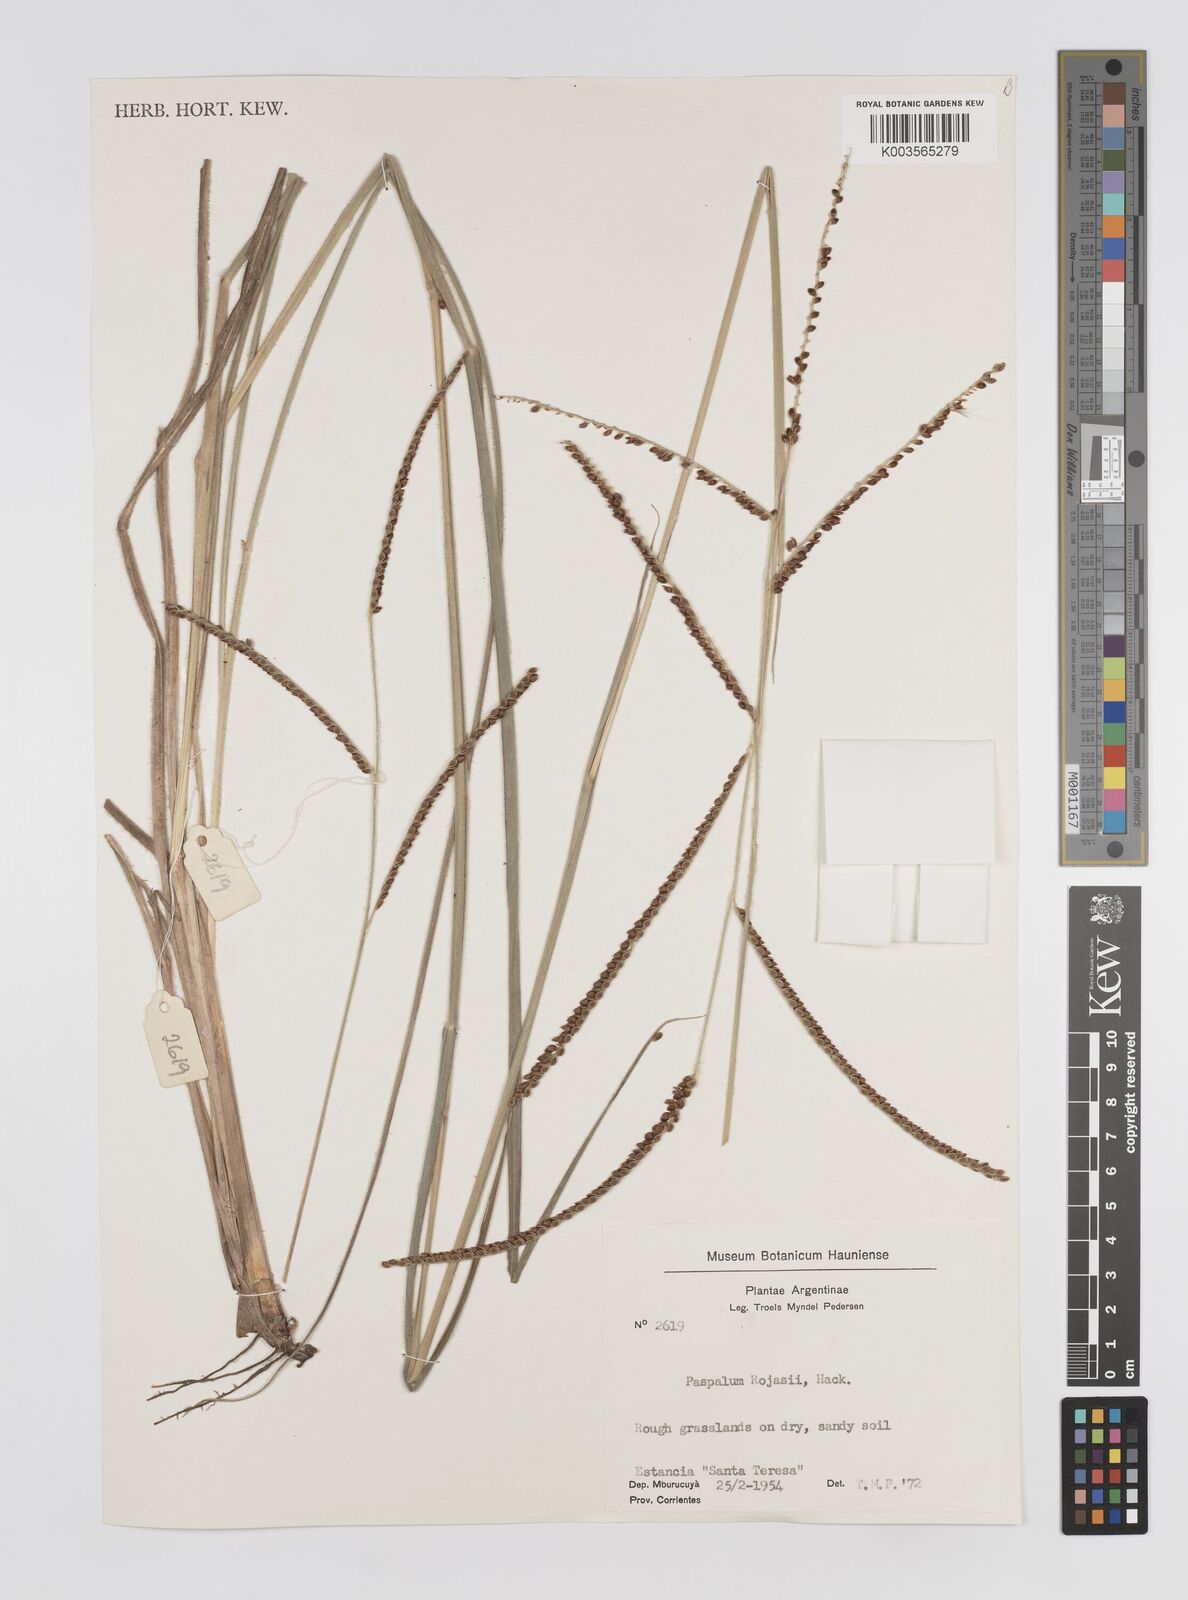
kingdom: Plantae
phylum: Tracheophyta
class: Liliopsida
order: Poales
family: Poaceae
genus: Paspalum
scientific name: Paspalum guenoarum
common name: Wintergreen paspalum
